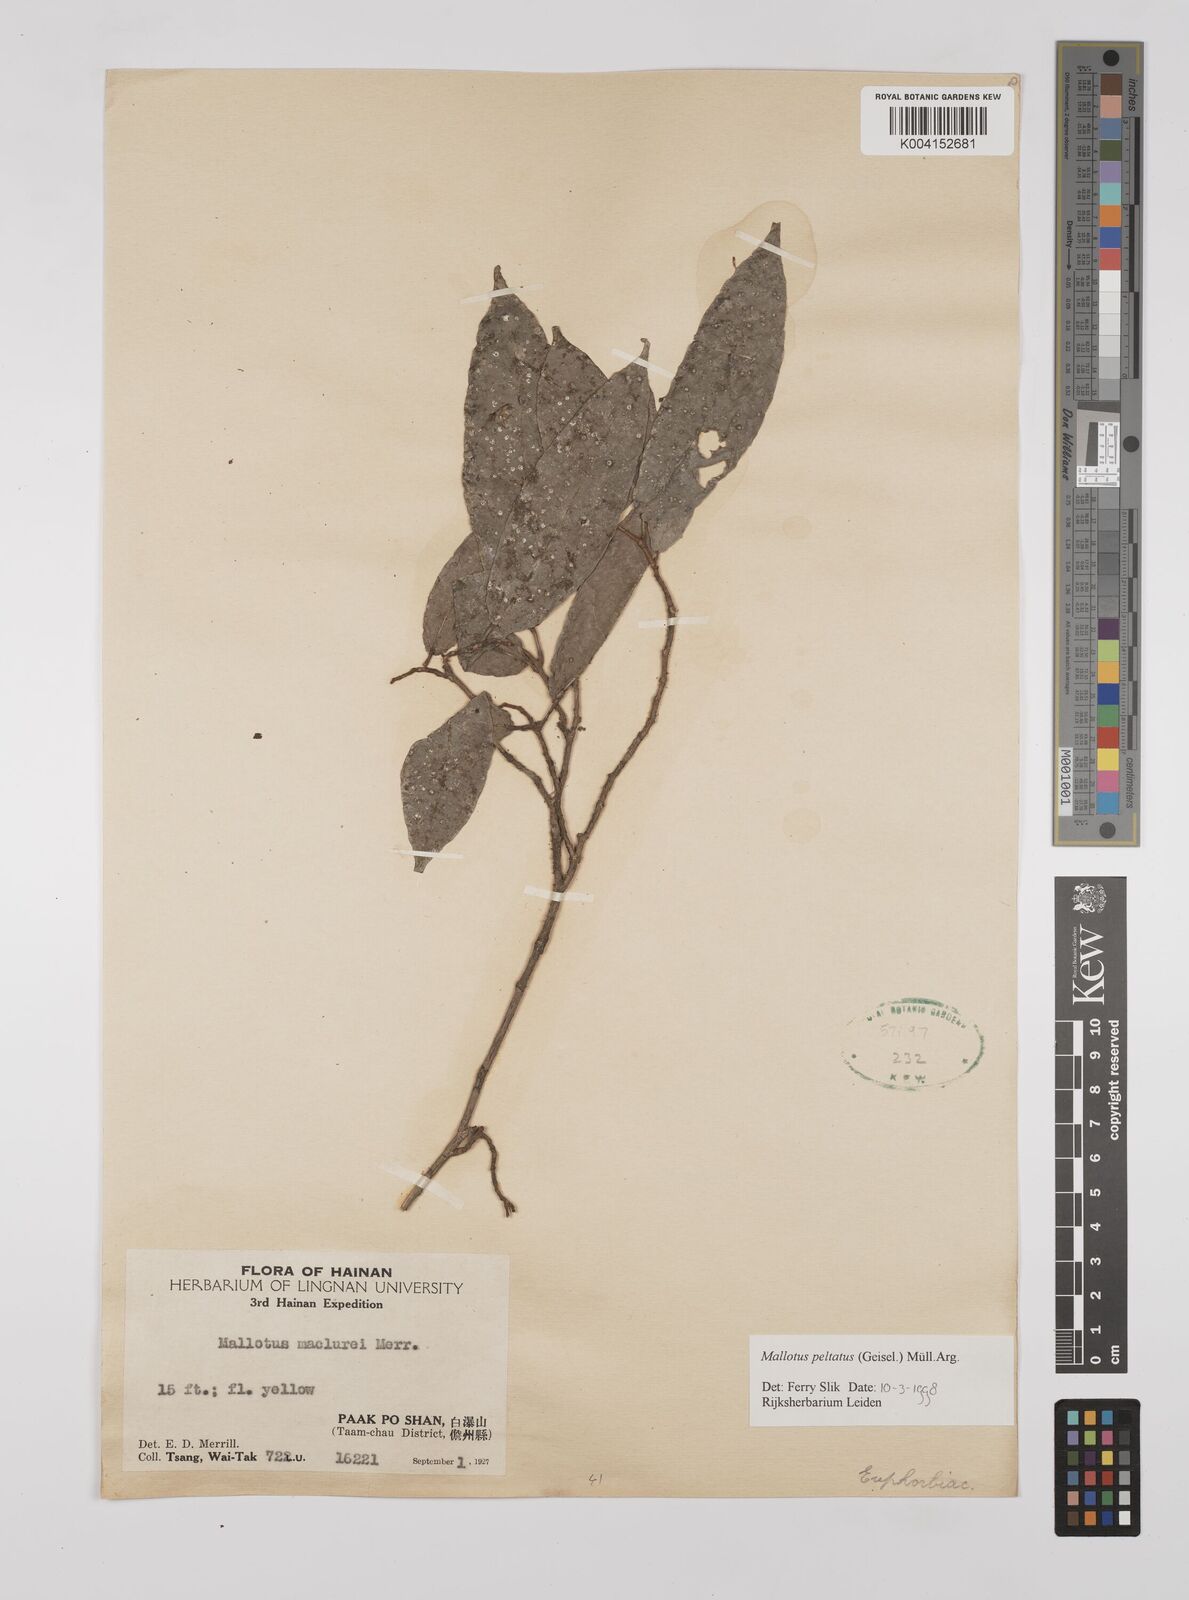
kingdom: Plantae
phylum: Tracheophyta
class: Magnoliopsida
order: Malpighiales
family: Euphorbiaceae
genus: Mallotus
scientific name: Mallotus peltatus
